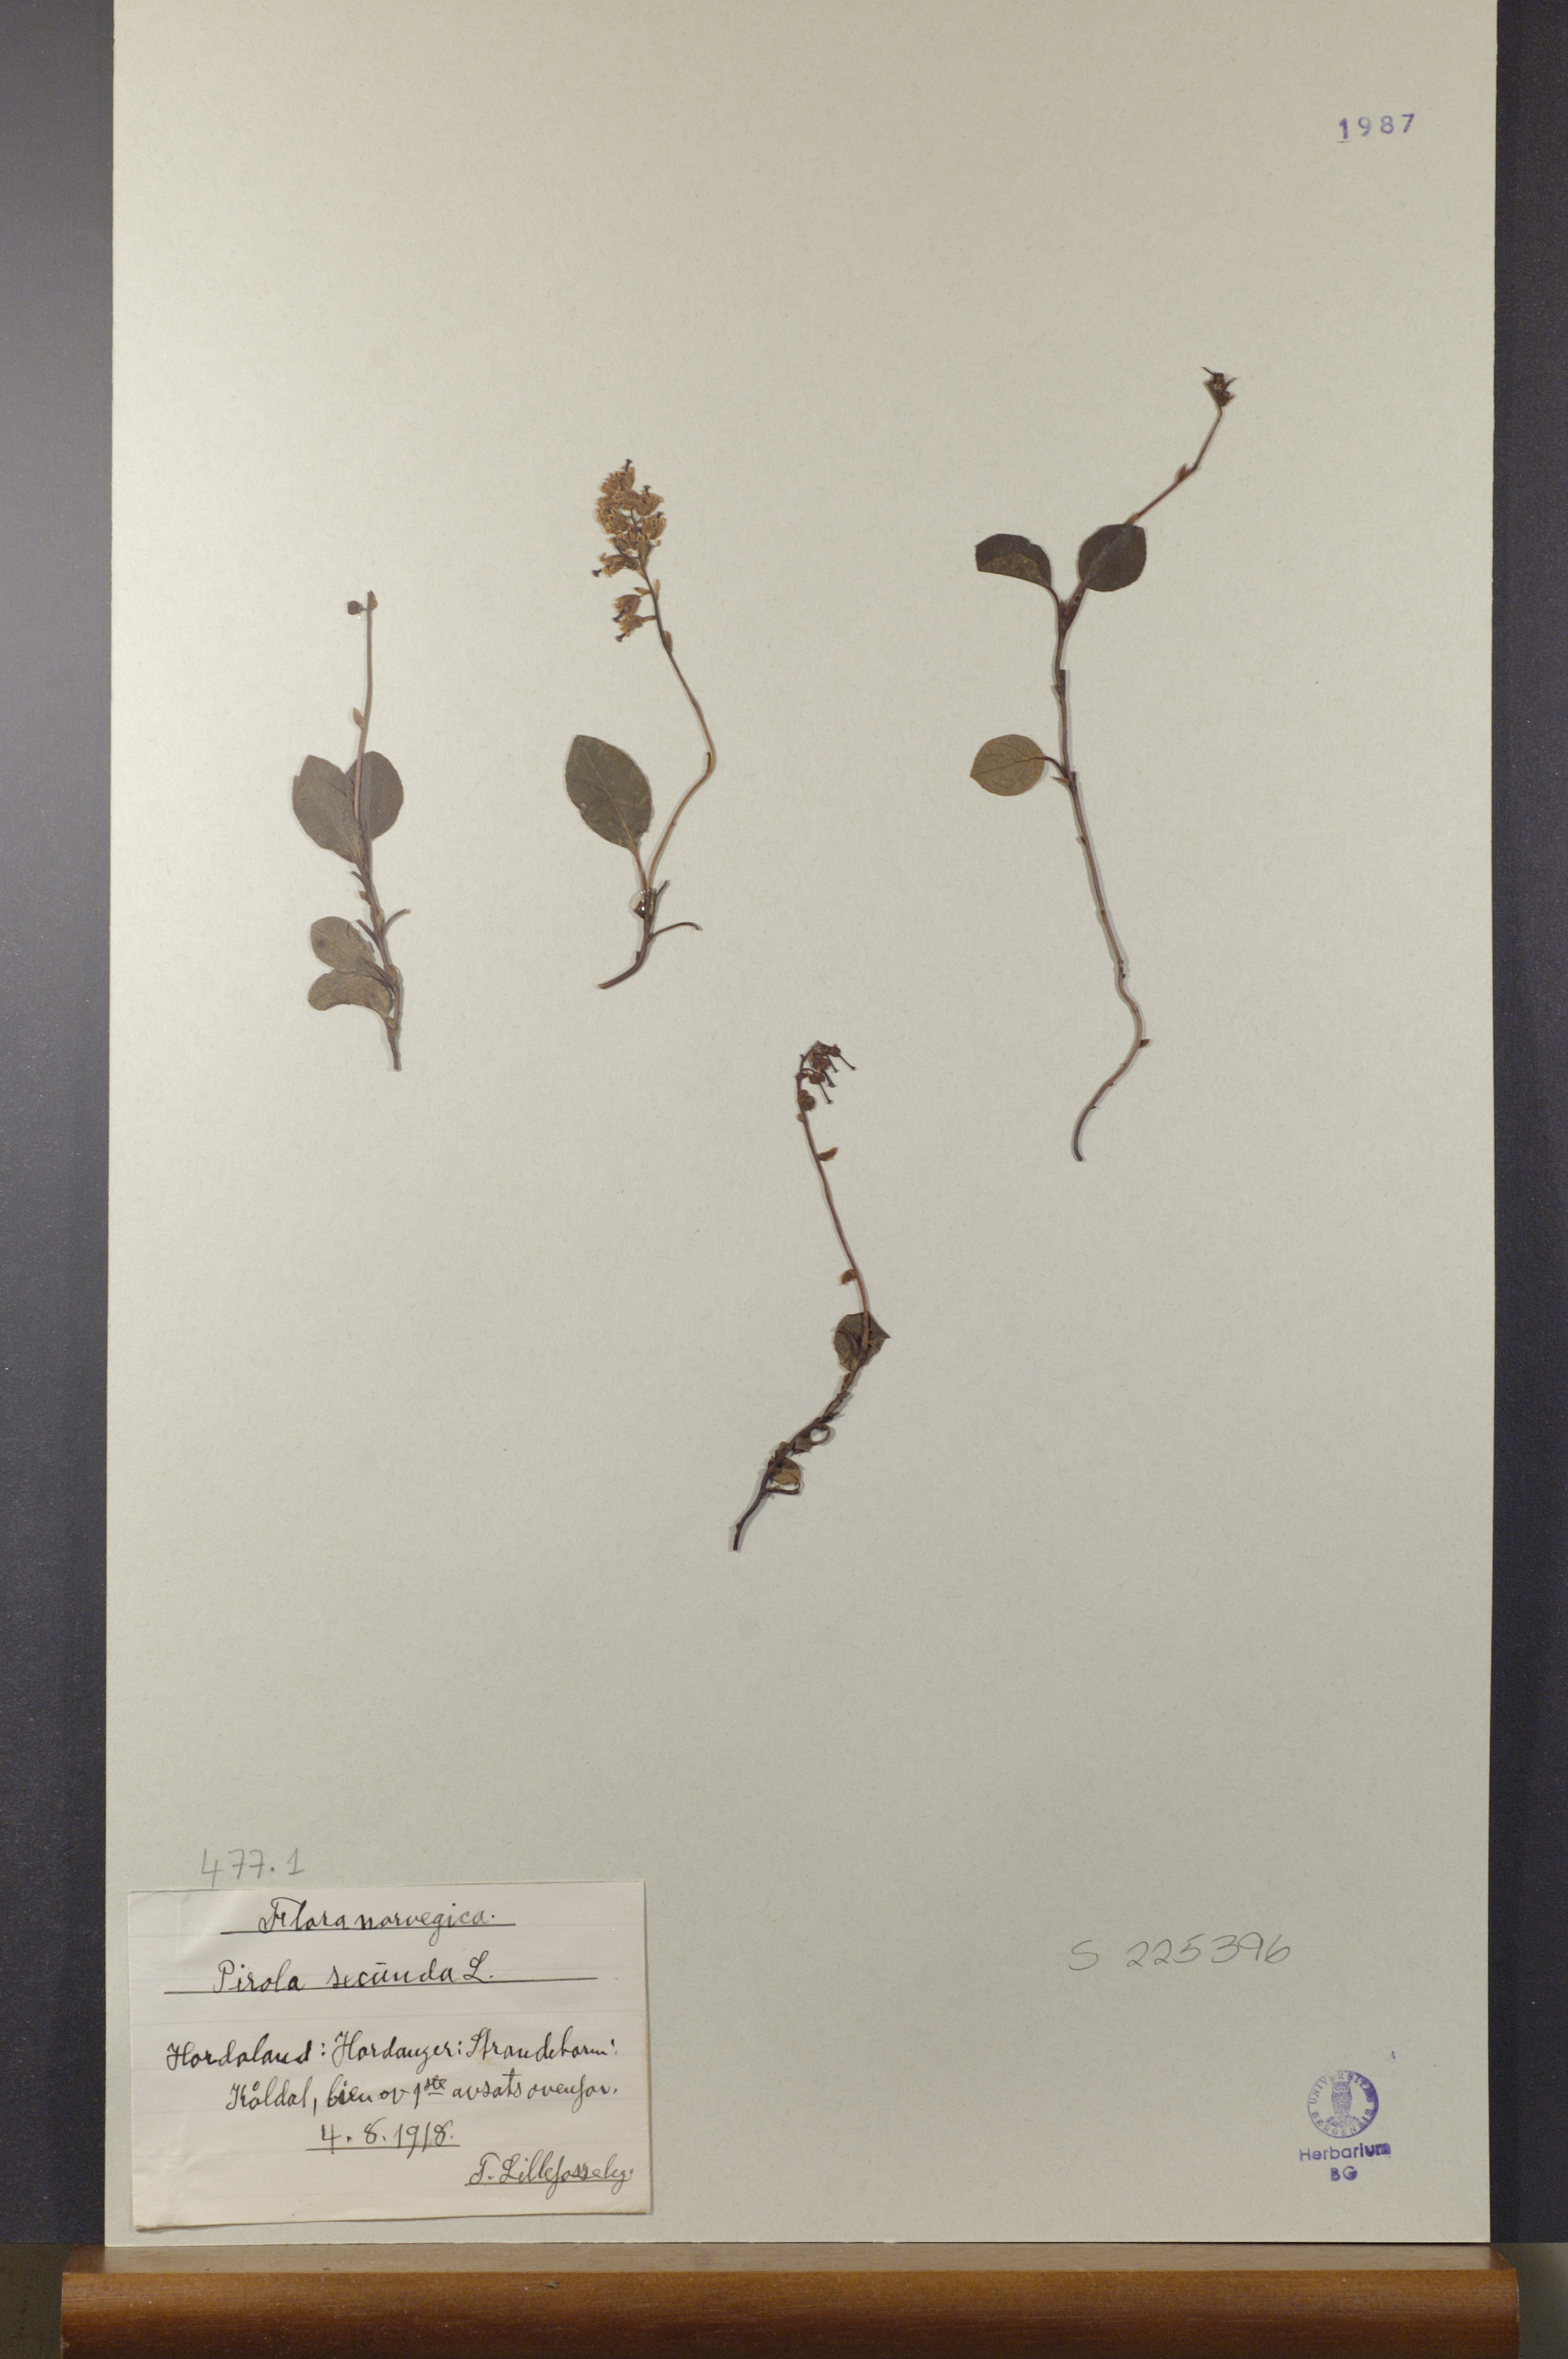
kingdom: Plantae
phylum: Tracheophyta
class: Magnoliopsida
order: Ericales
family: Ericaceae
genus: Orthilia
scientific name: Orthilia secunda
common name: One-sided orthilia
